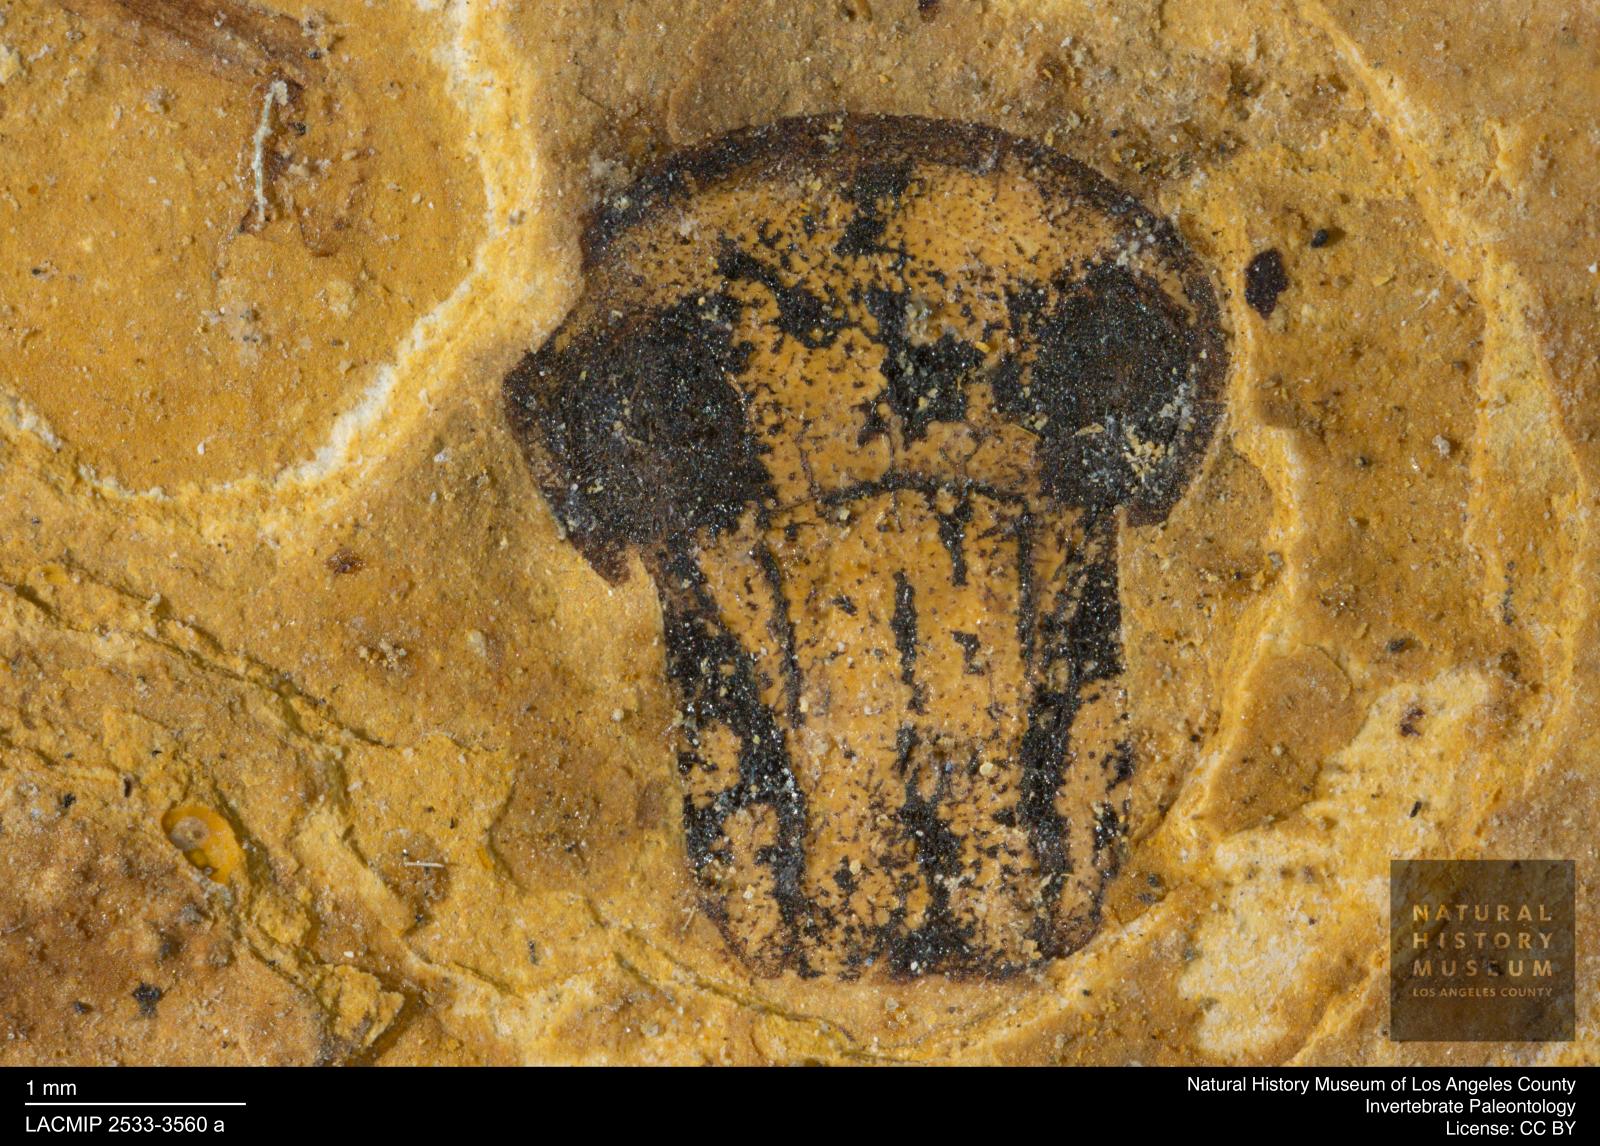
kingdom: Animalia
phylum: Arthropoda
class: Insecta
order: Coleoptera
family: Curculionidae
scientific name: Curculionidae
